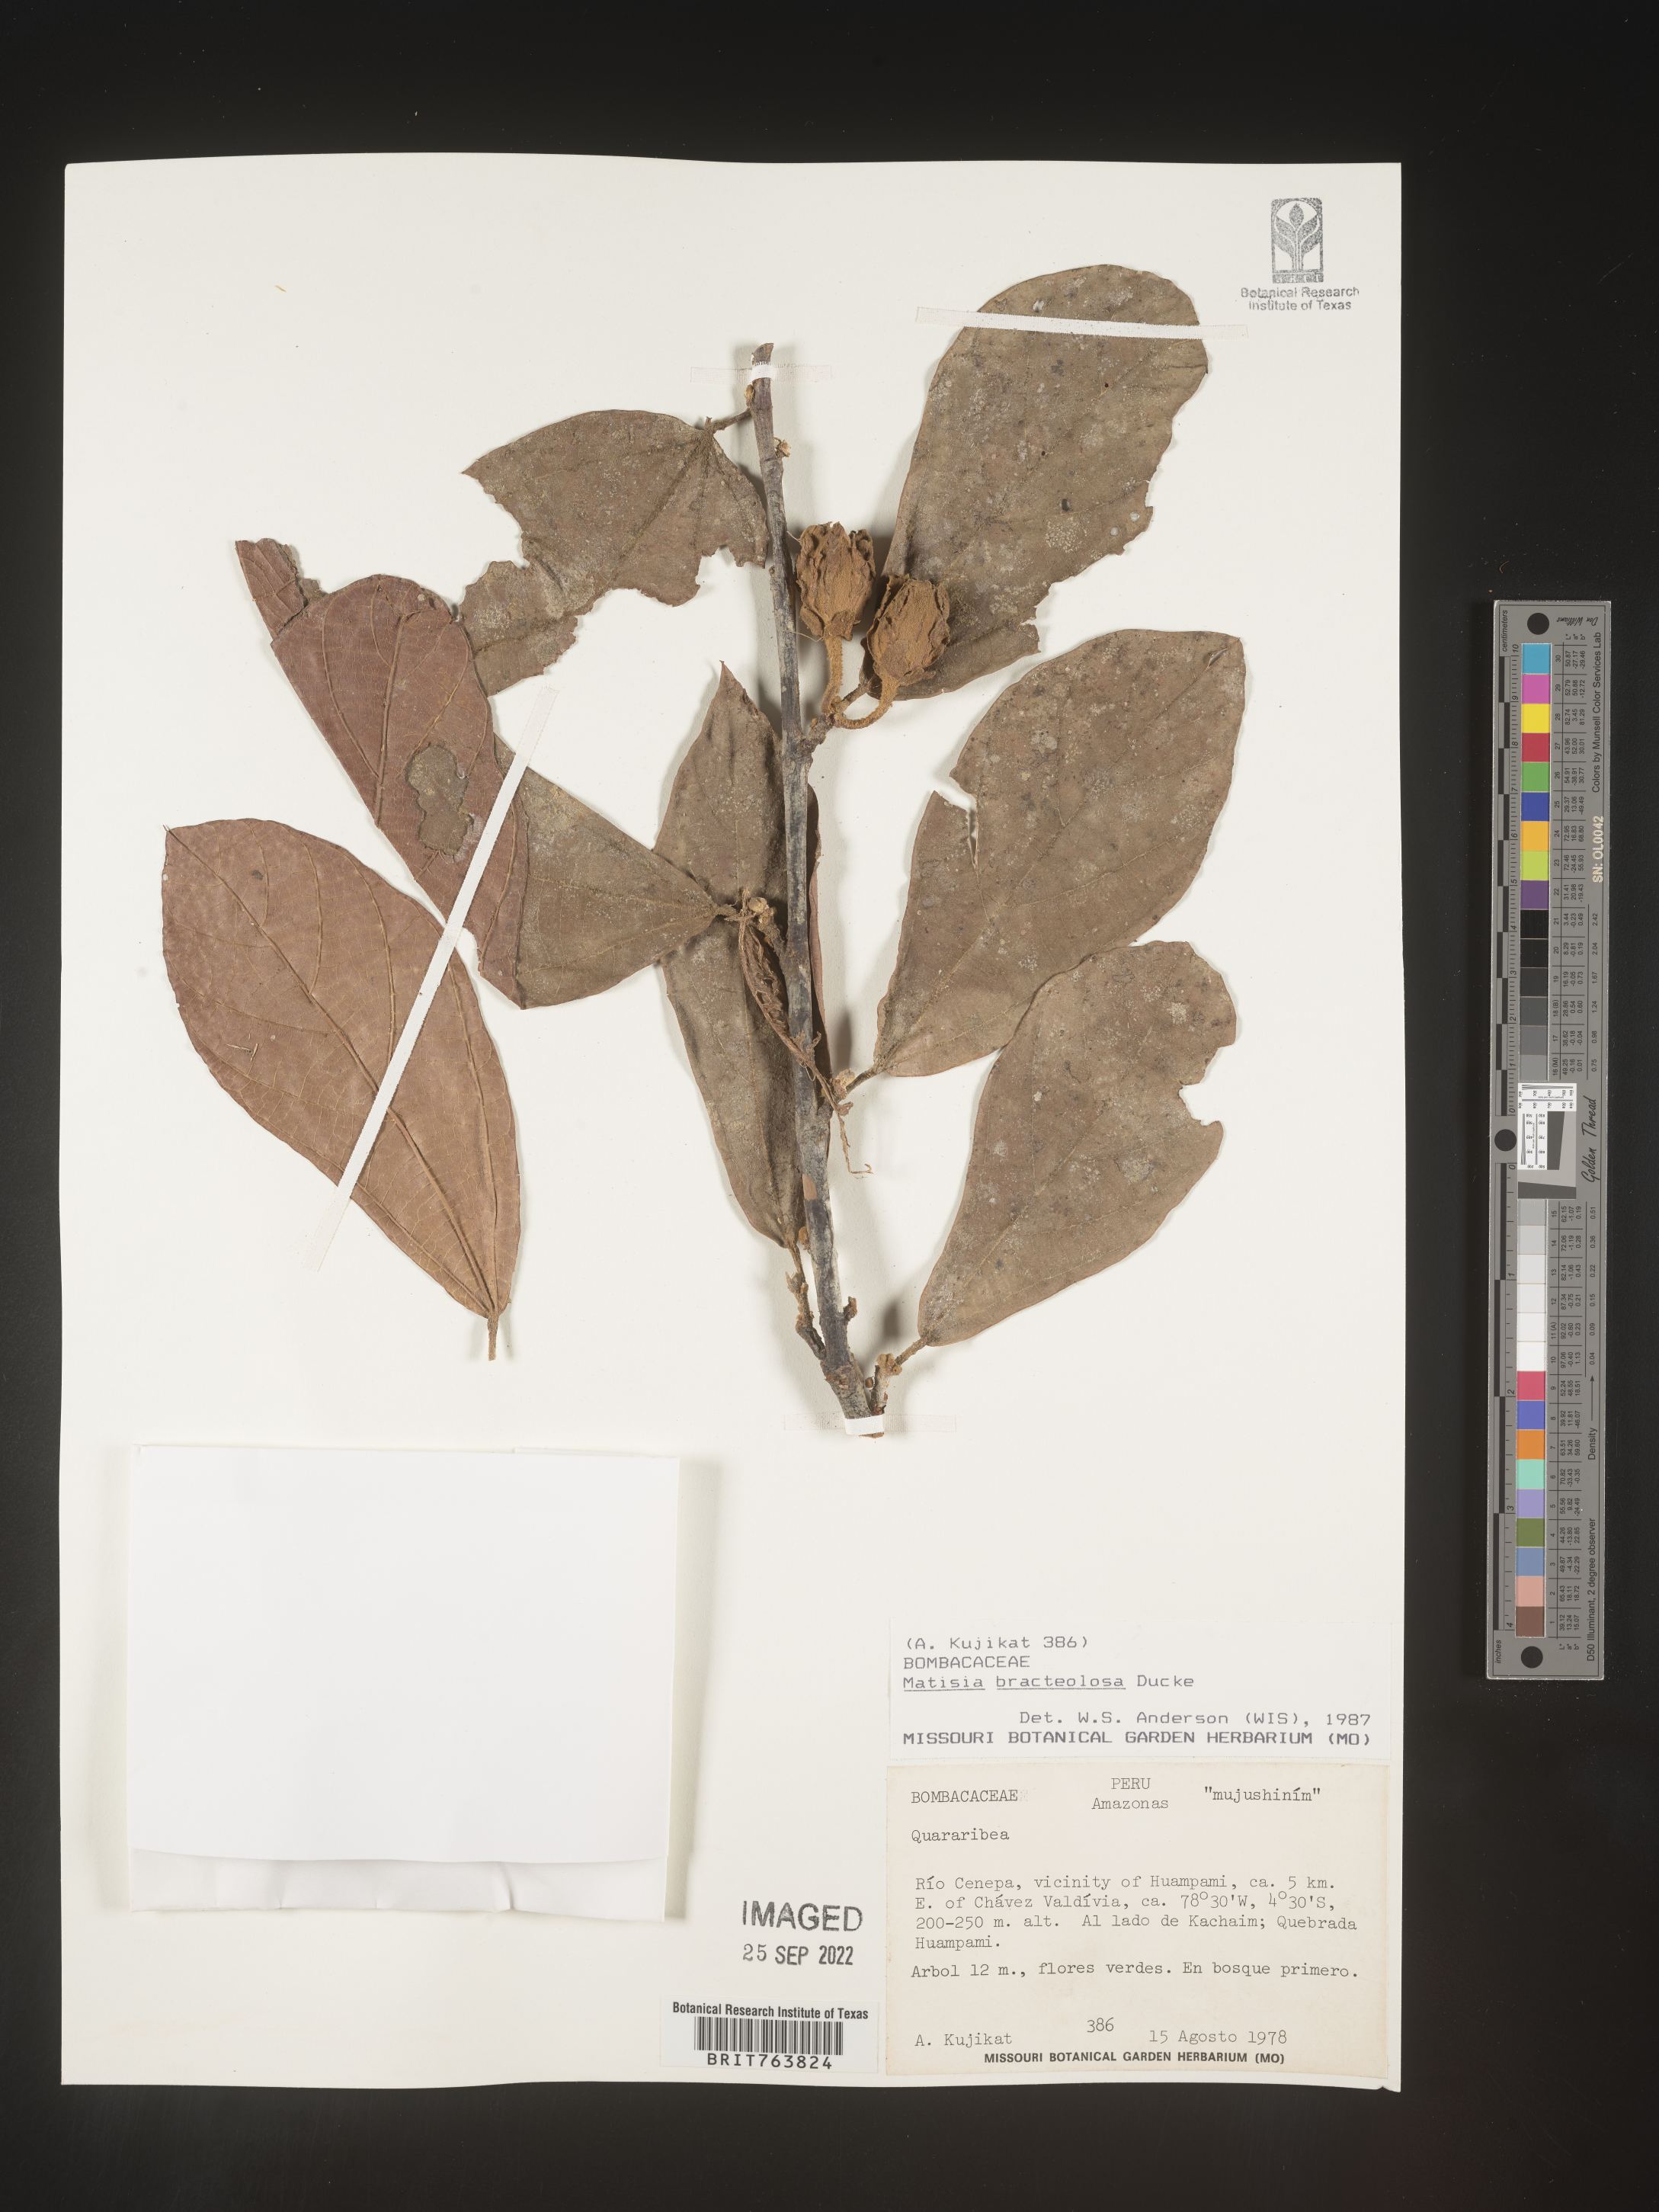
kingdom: Plantae
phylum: Tracheophyta
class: Magnoliopsida
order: Malvales
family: Malvaceae
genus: Matisia
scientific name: Matisia
